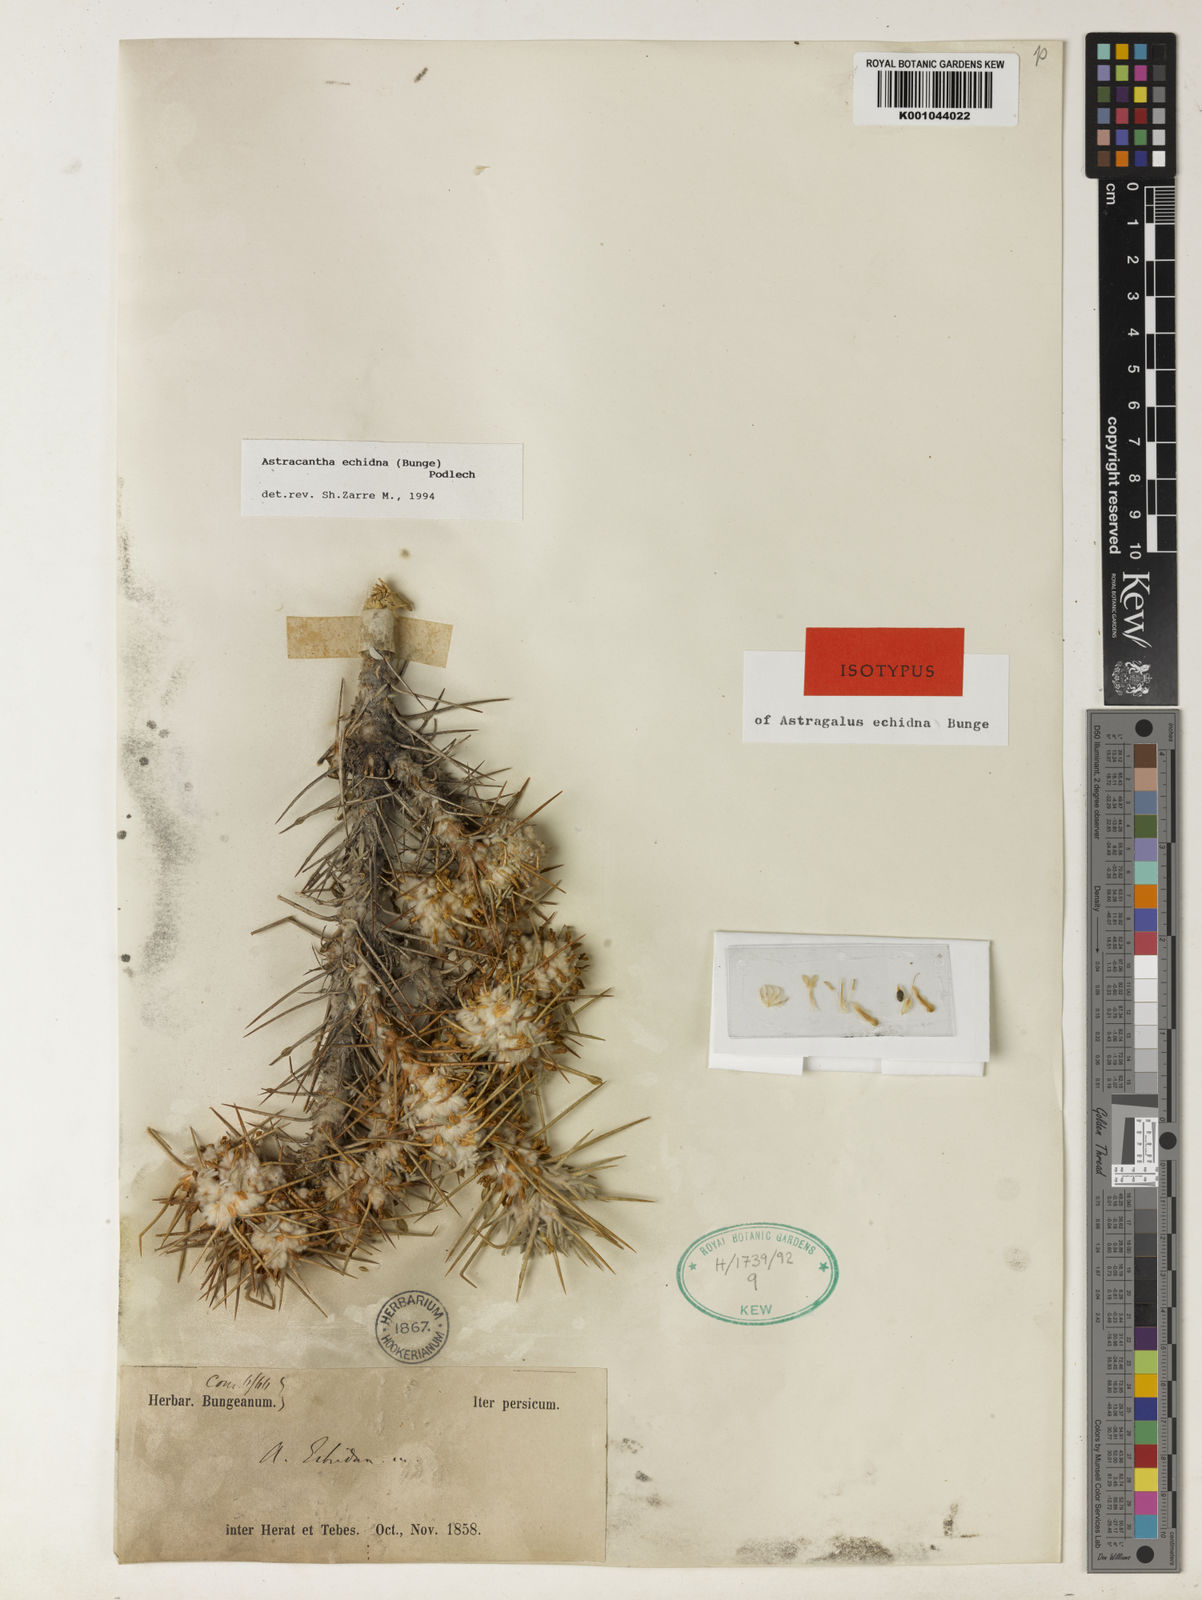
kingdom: Plantae
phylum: Tracheophyta
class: Magnoliopsida
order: Fabales
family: Fabaceae
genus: Astragalus
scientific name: Astragalus echidna
